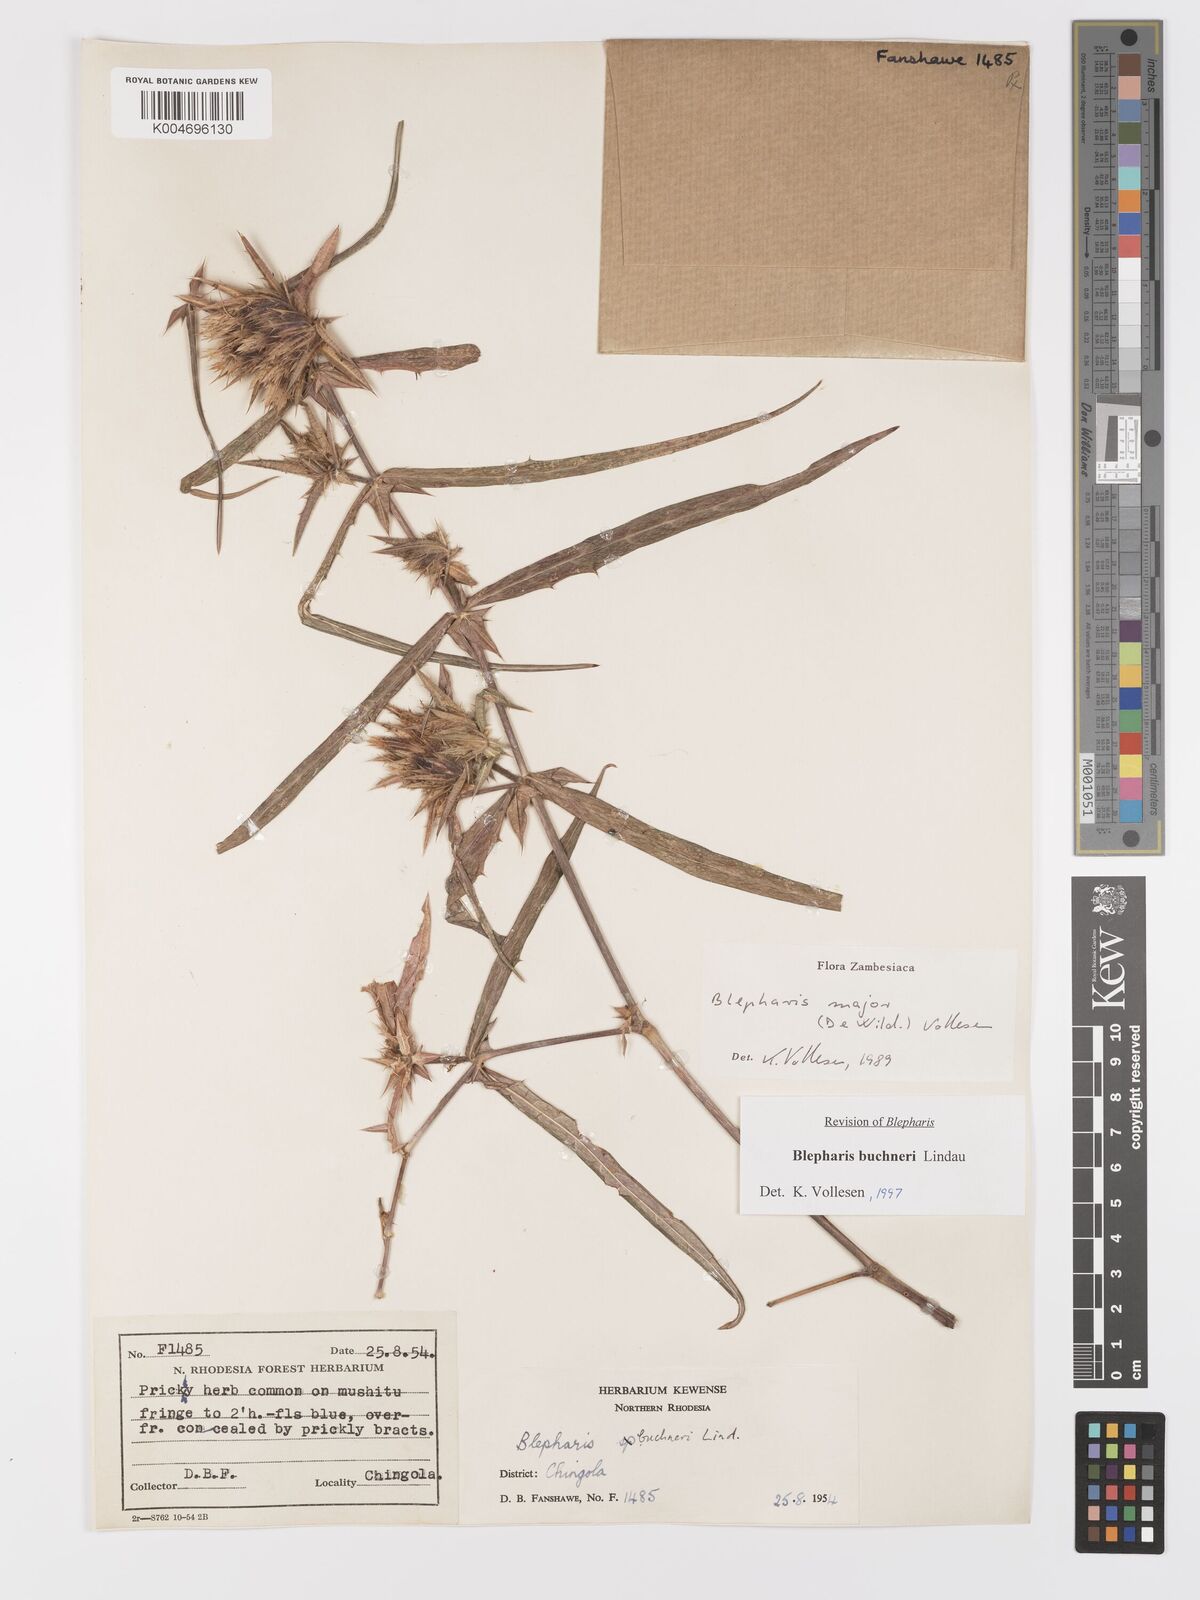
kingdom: Plantae
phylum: Tracheophyta
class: Magnoliopsida
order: Lamiales
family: Acanthaceae
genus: Blepharis
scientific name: Blepharis buchneri
